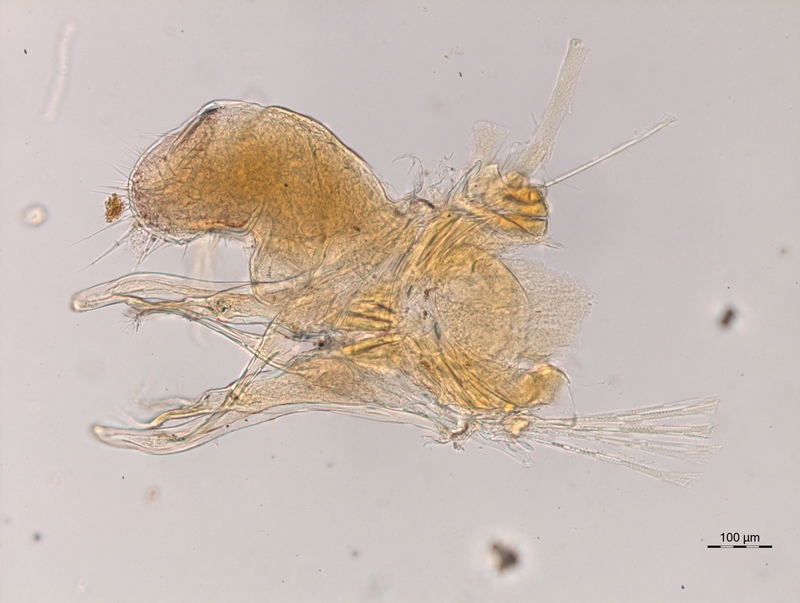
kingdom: Animalia
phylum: Arthropoda
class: Diplopoda
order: Chordeumatida
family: Chordeumatidae
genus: Melogona
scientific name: Melogona broelemanni
